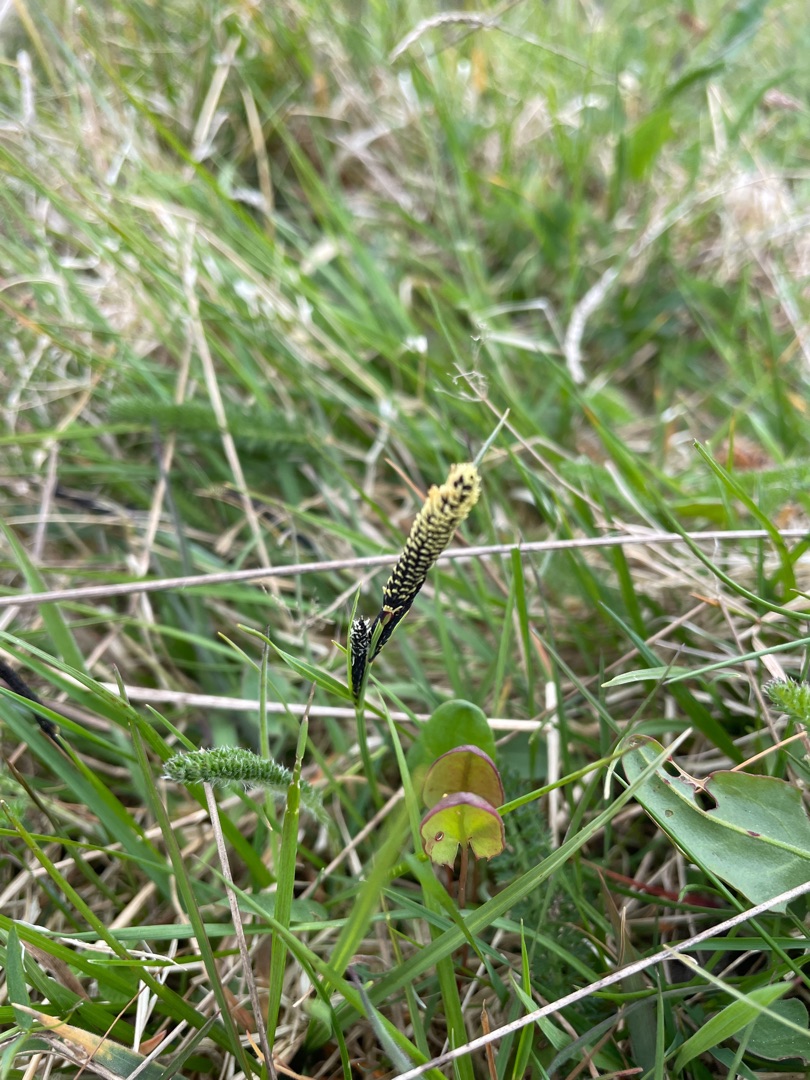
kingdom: Plantae
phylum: Tracheophyta
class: Liliopsida
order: Poales
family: Cyperaceae
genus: Carex
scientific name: Carex nigra
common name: Almindelig star
